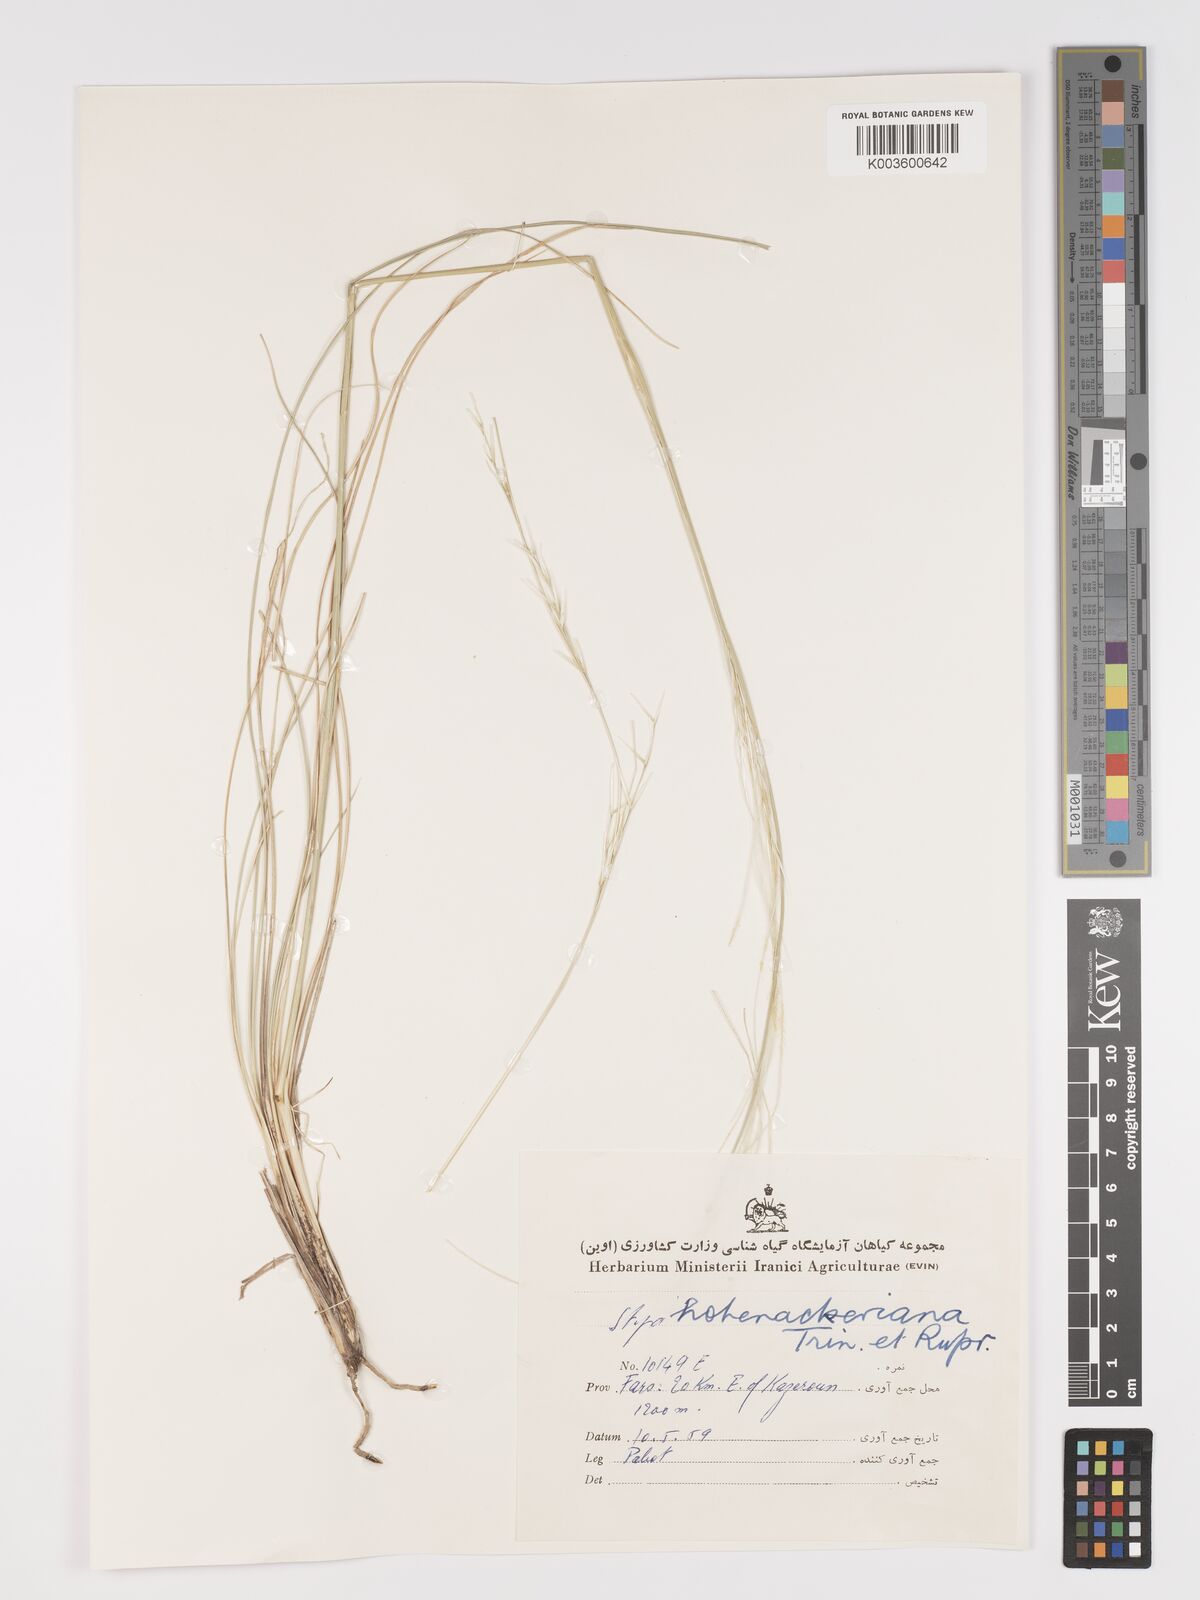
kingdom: Plantae
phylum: Tracheophyta
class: Liliopsida
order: Poales
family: Poaceae
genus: Stipa
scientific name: Stipa hohenackeriana
